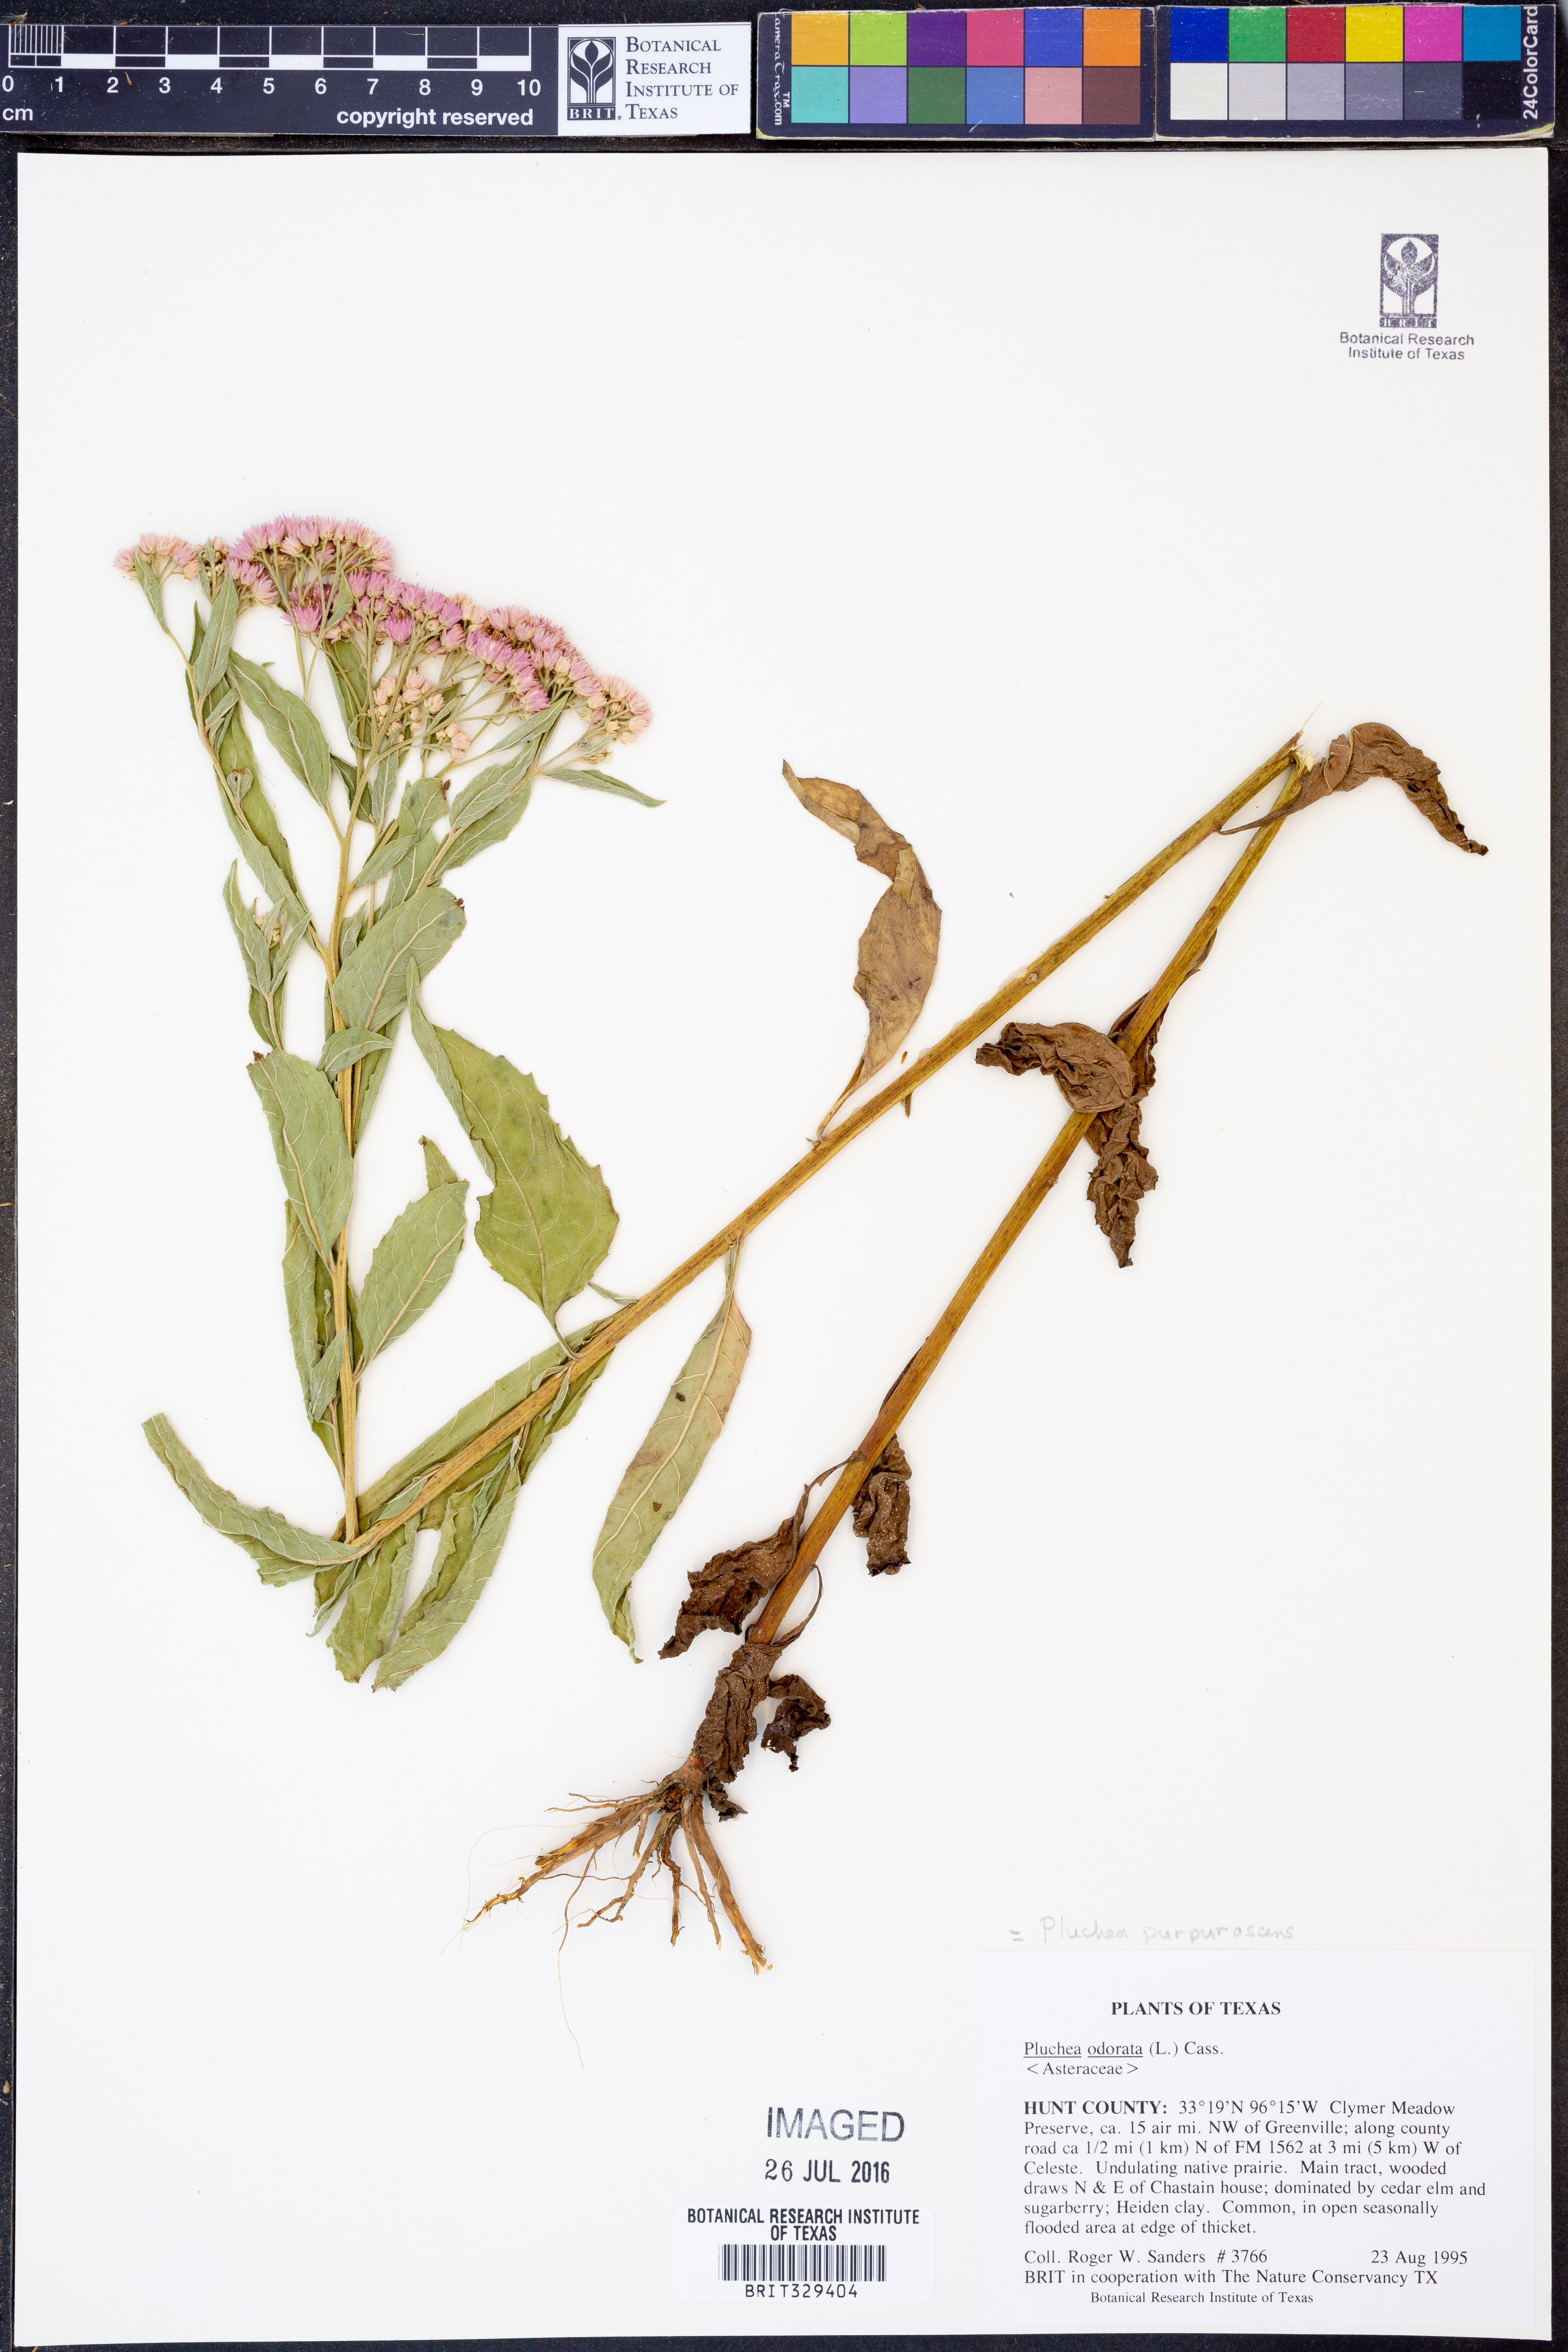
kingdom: Plantae
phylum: Tracheophyta
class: Magnoliopsida
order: Asterales
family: Asteraceae
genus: Pluchea
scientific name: Pluchea odorata
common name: Saltmarsh fleabane
